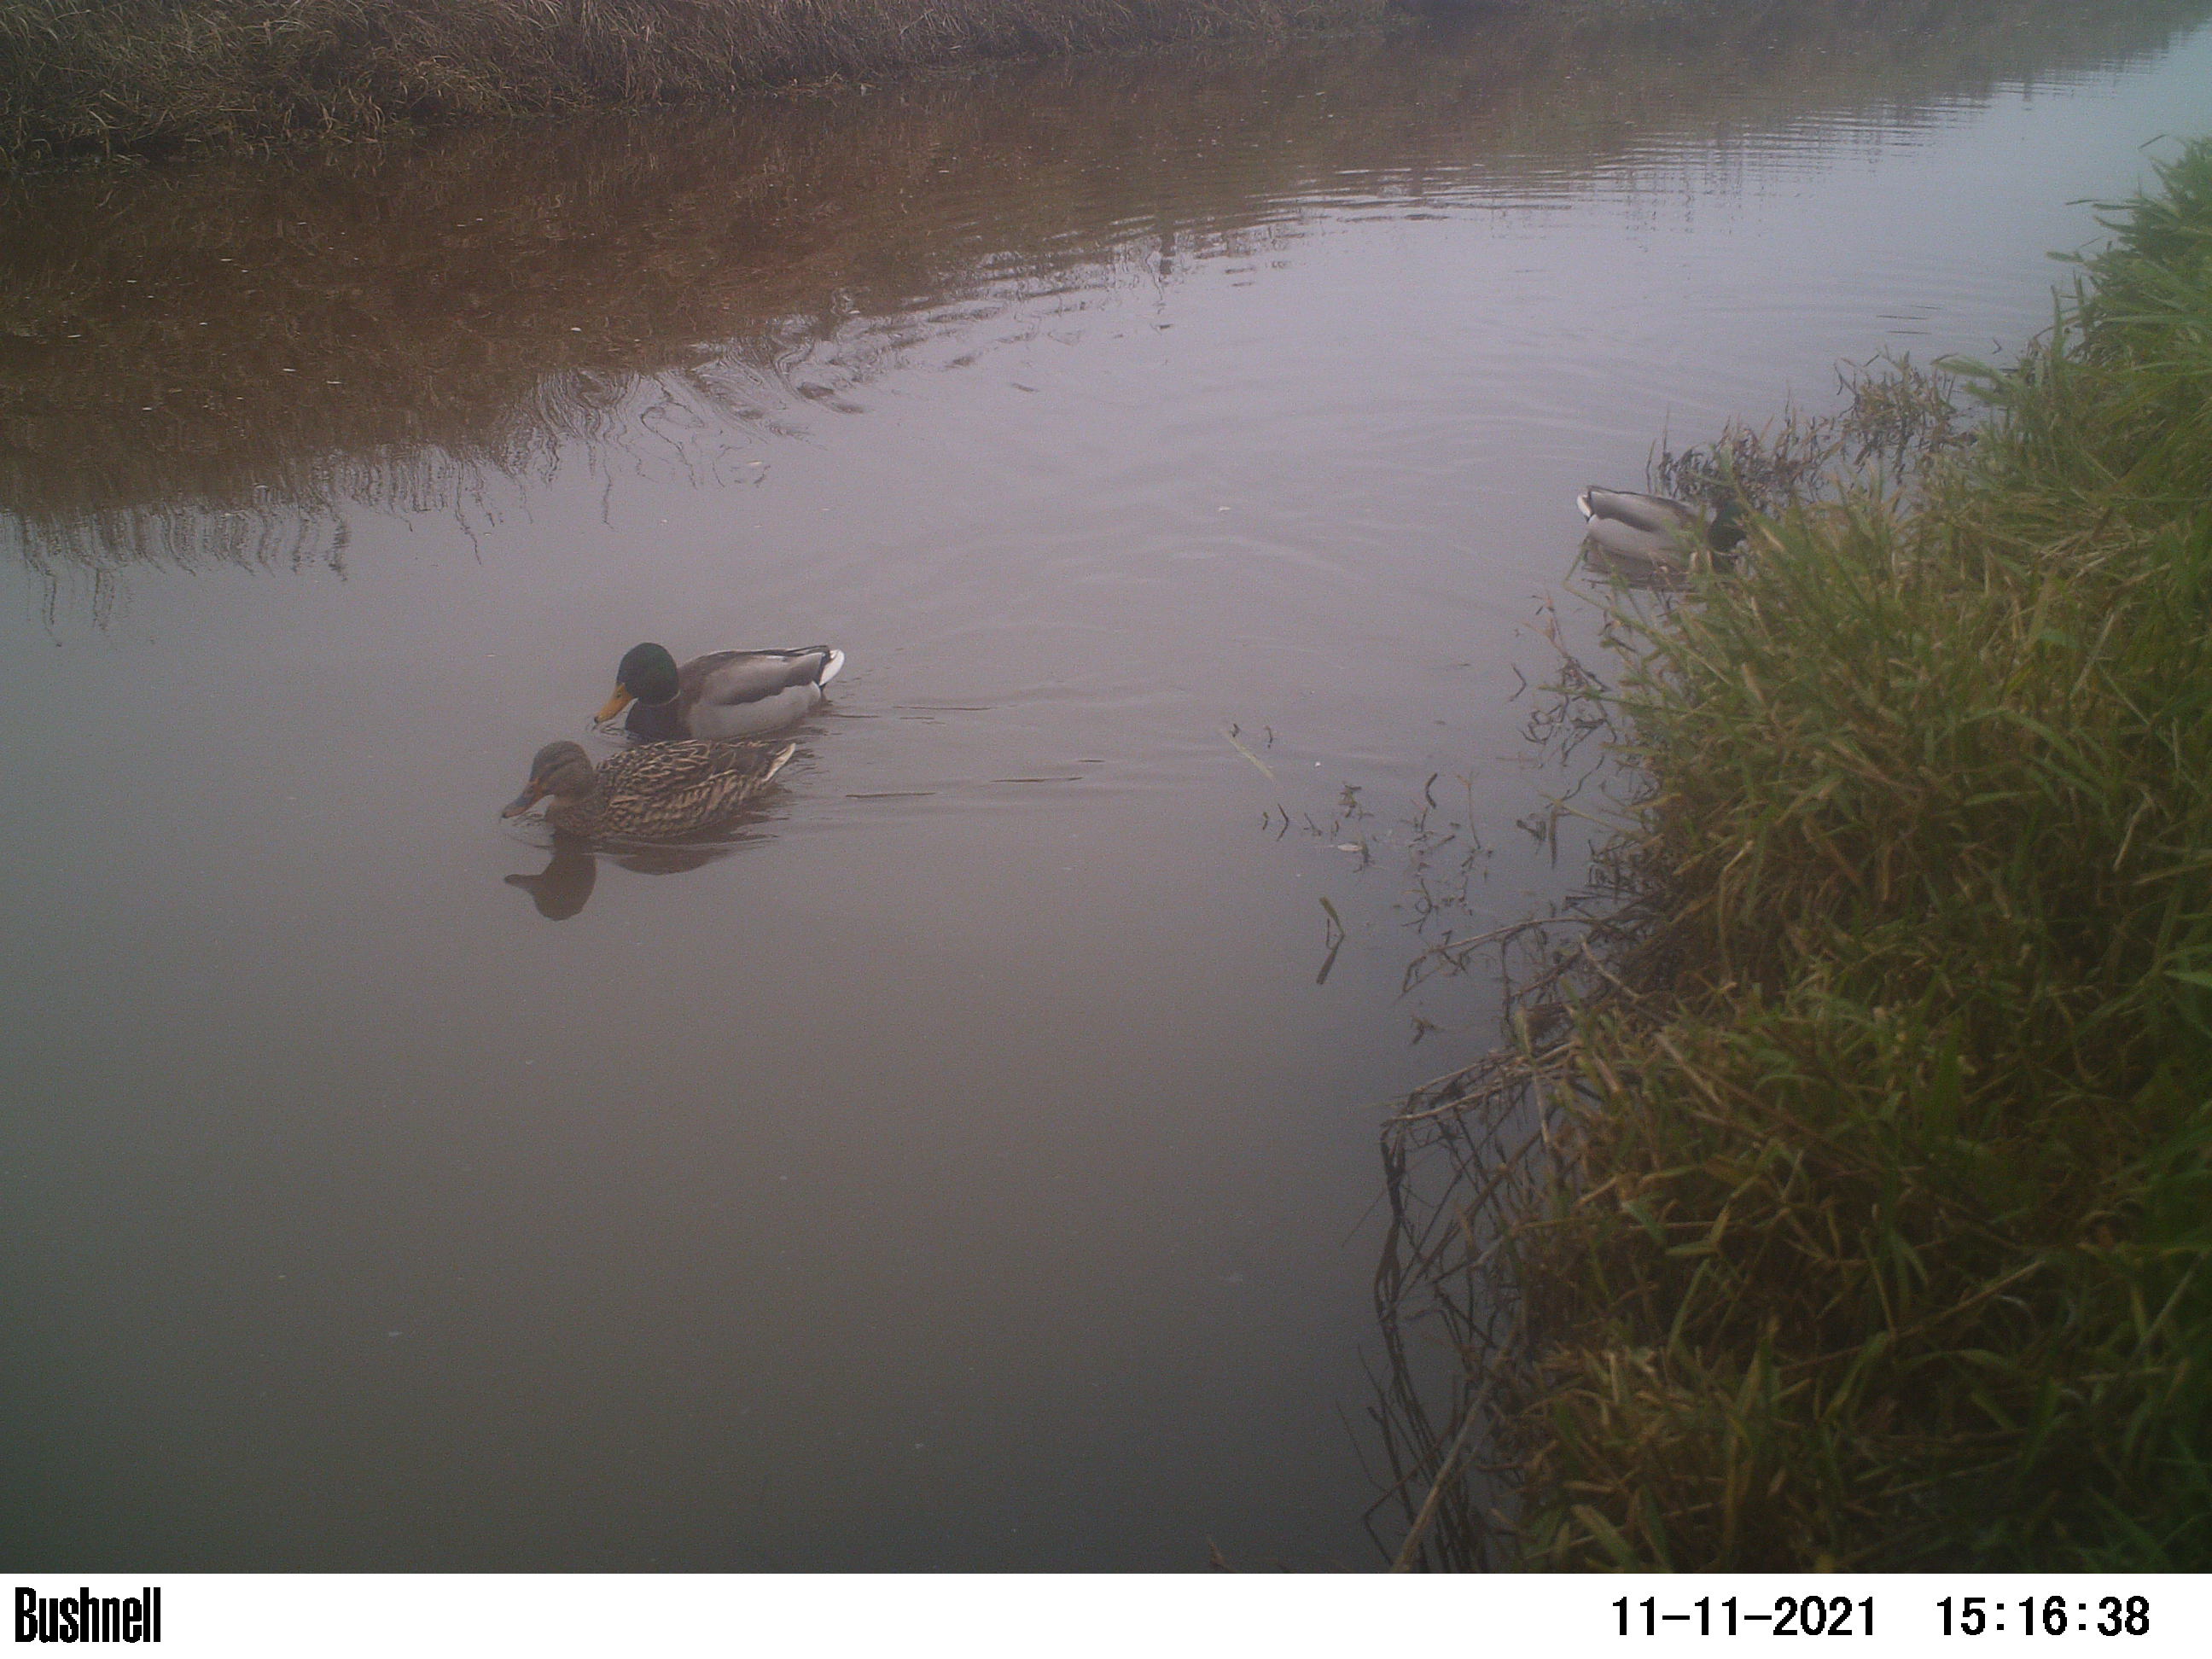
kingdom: Animalia
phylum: Chordata
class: Aves
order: Anseriformes
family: Anatidae
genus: Anas
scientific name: Anas
